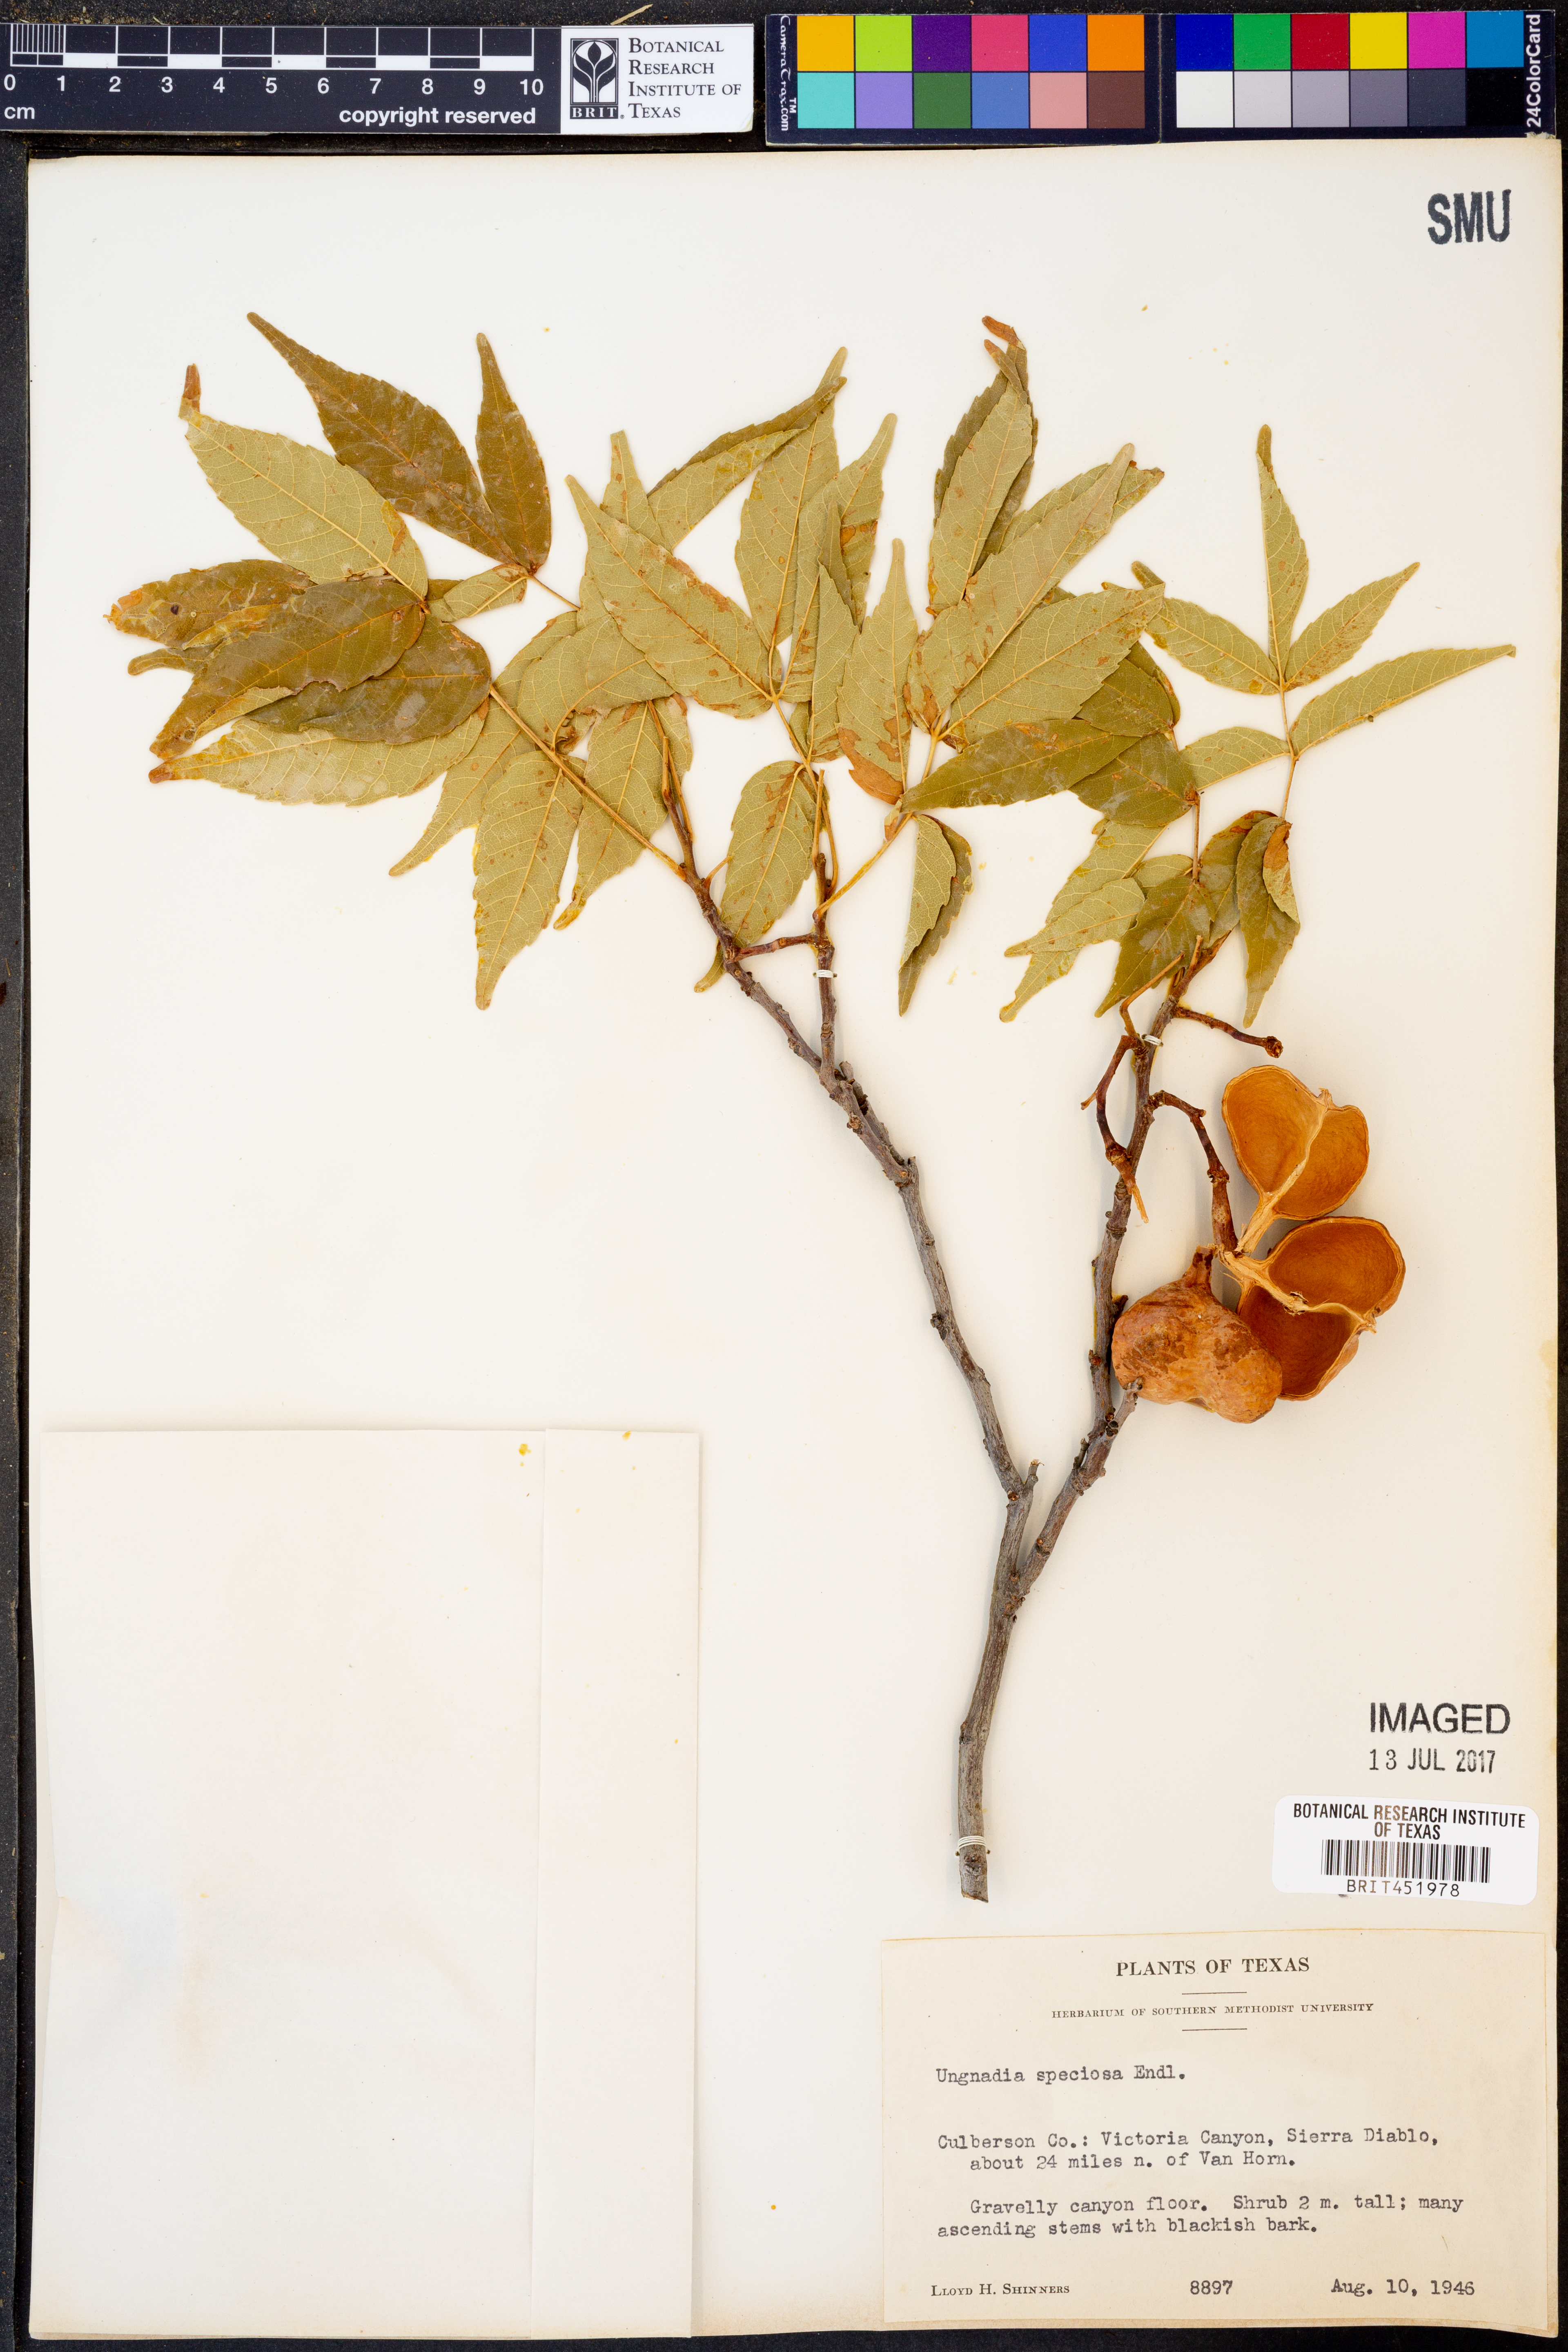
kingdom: Plantae
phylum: Tracheophyta
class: Magnoliopsida
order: Sapindales
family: Sapindaceae
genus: Ungnadia
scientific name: Ungnadia speciosa
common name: Texas-buckeye
